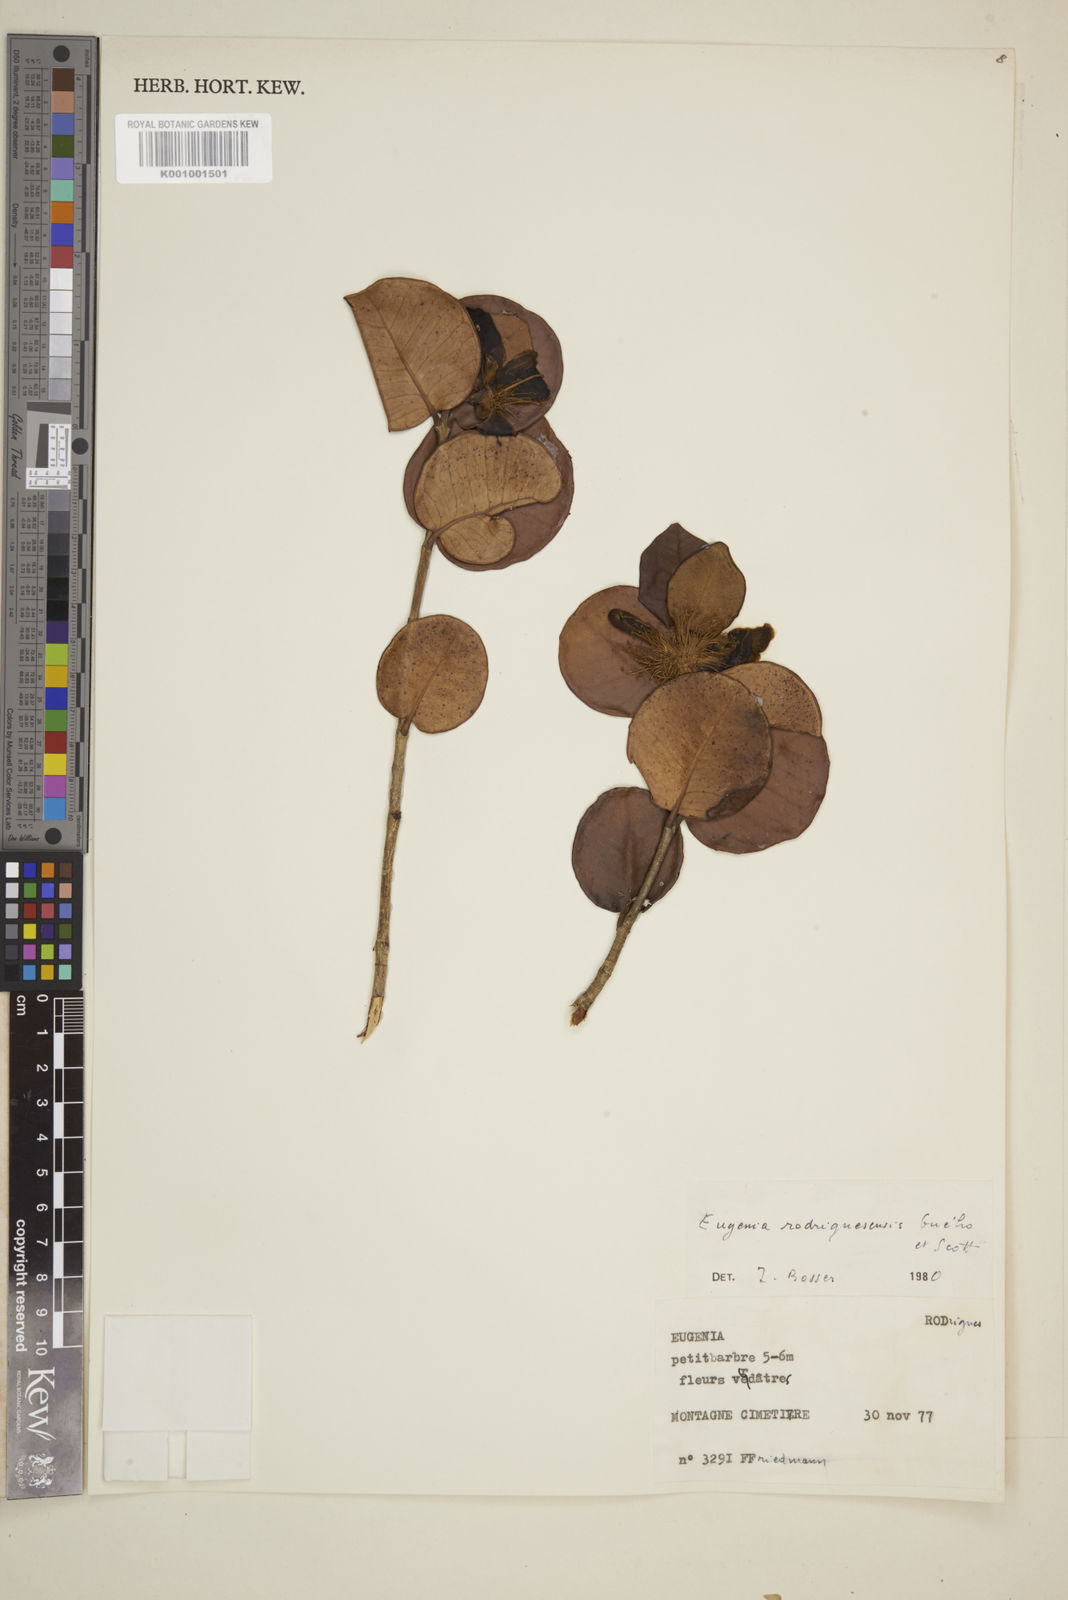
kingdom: Plantae
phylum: Tracheophyta
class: Magnoliopsida
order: Myrtales
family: Myrtaceae
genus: Eugenia
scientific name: Eugenia
